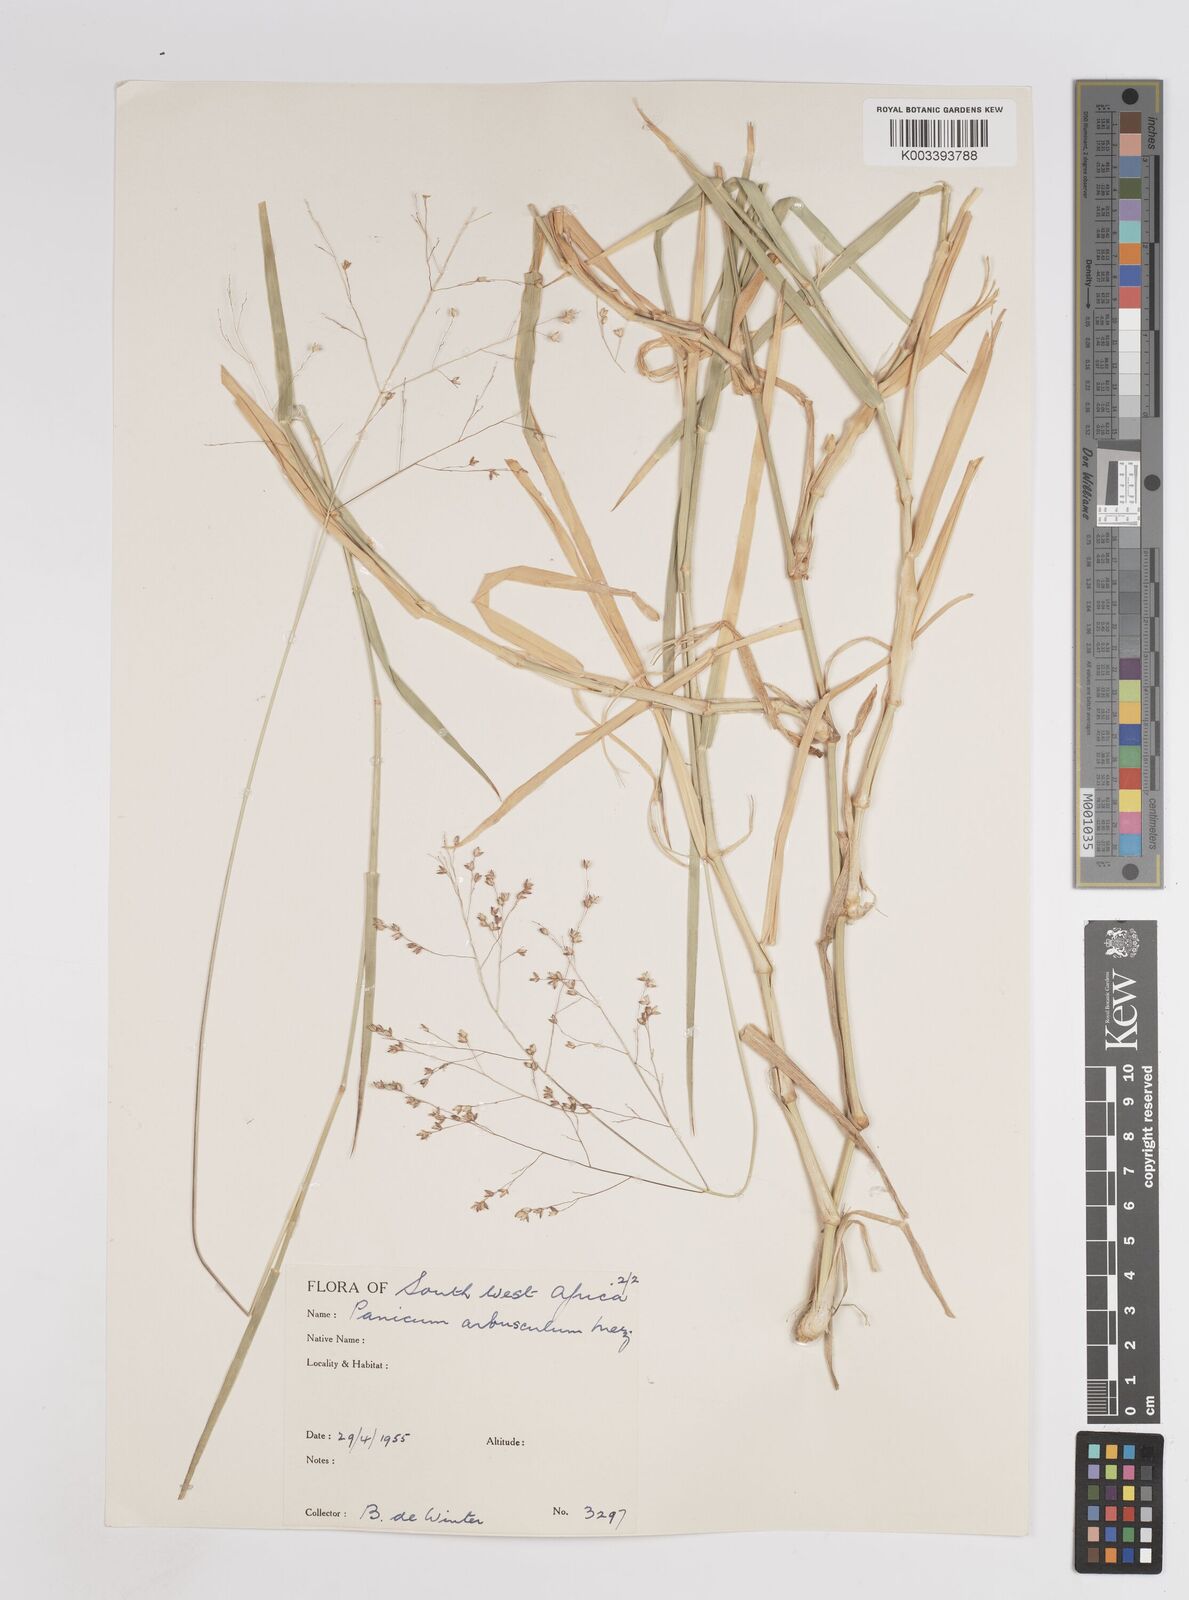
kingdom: Plantae
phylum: Tracheophyta
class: Liliopsida
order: Poales
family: Poaceae
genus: Panicum
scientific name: Panicum arbusculum
